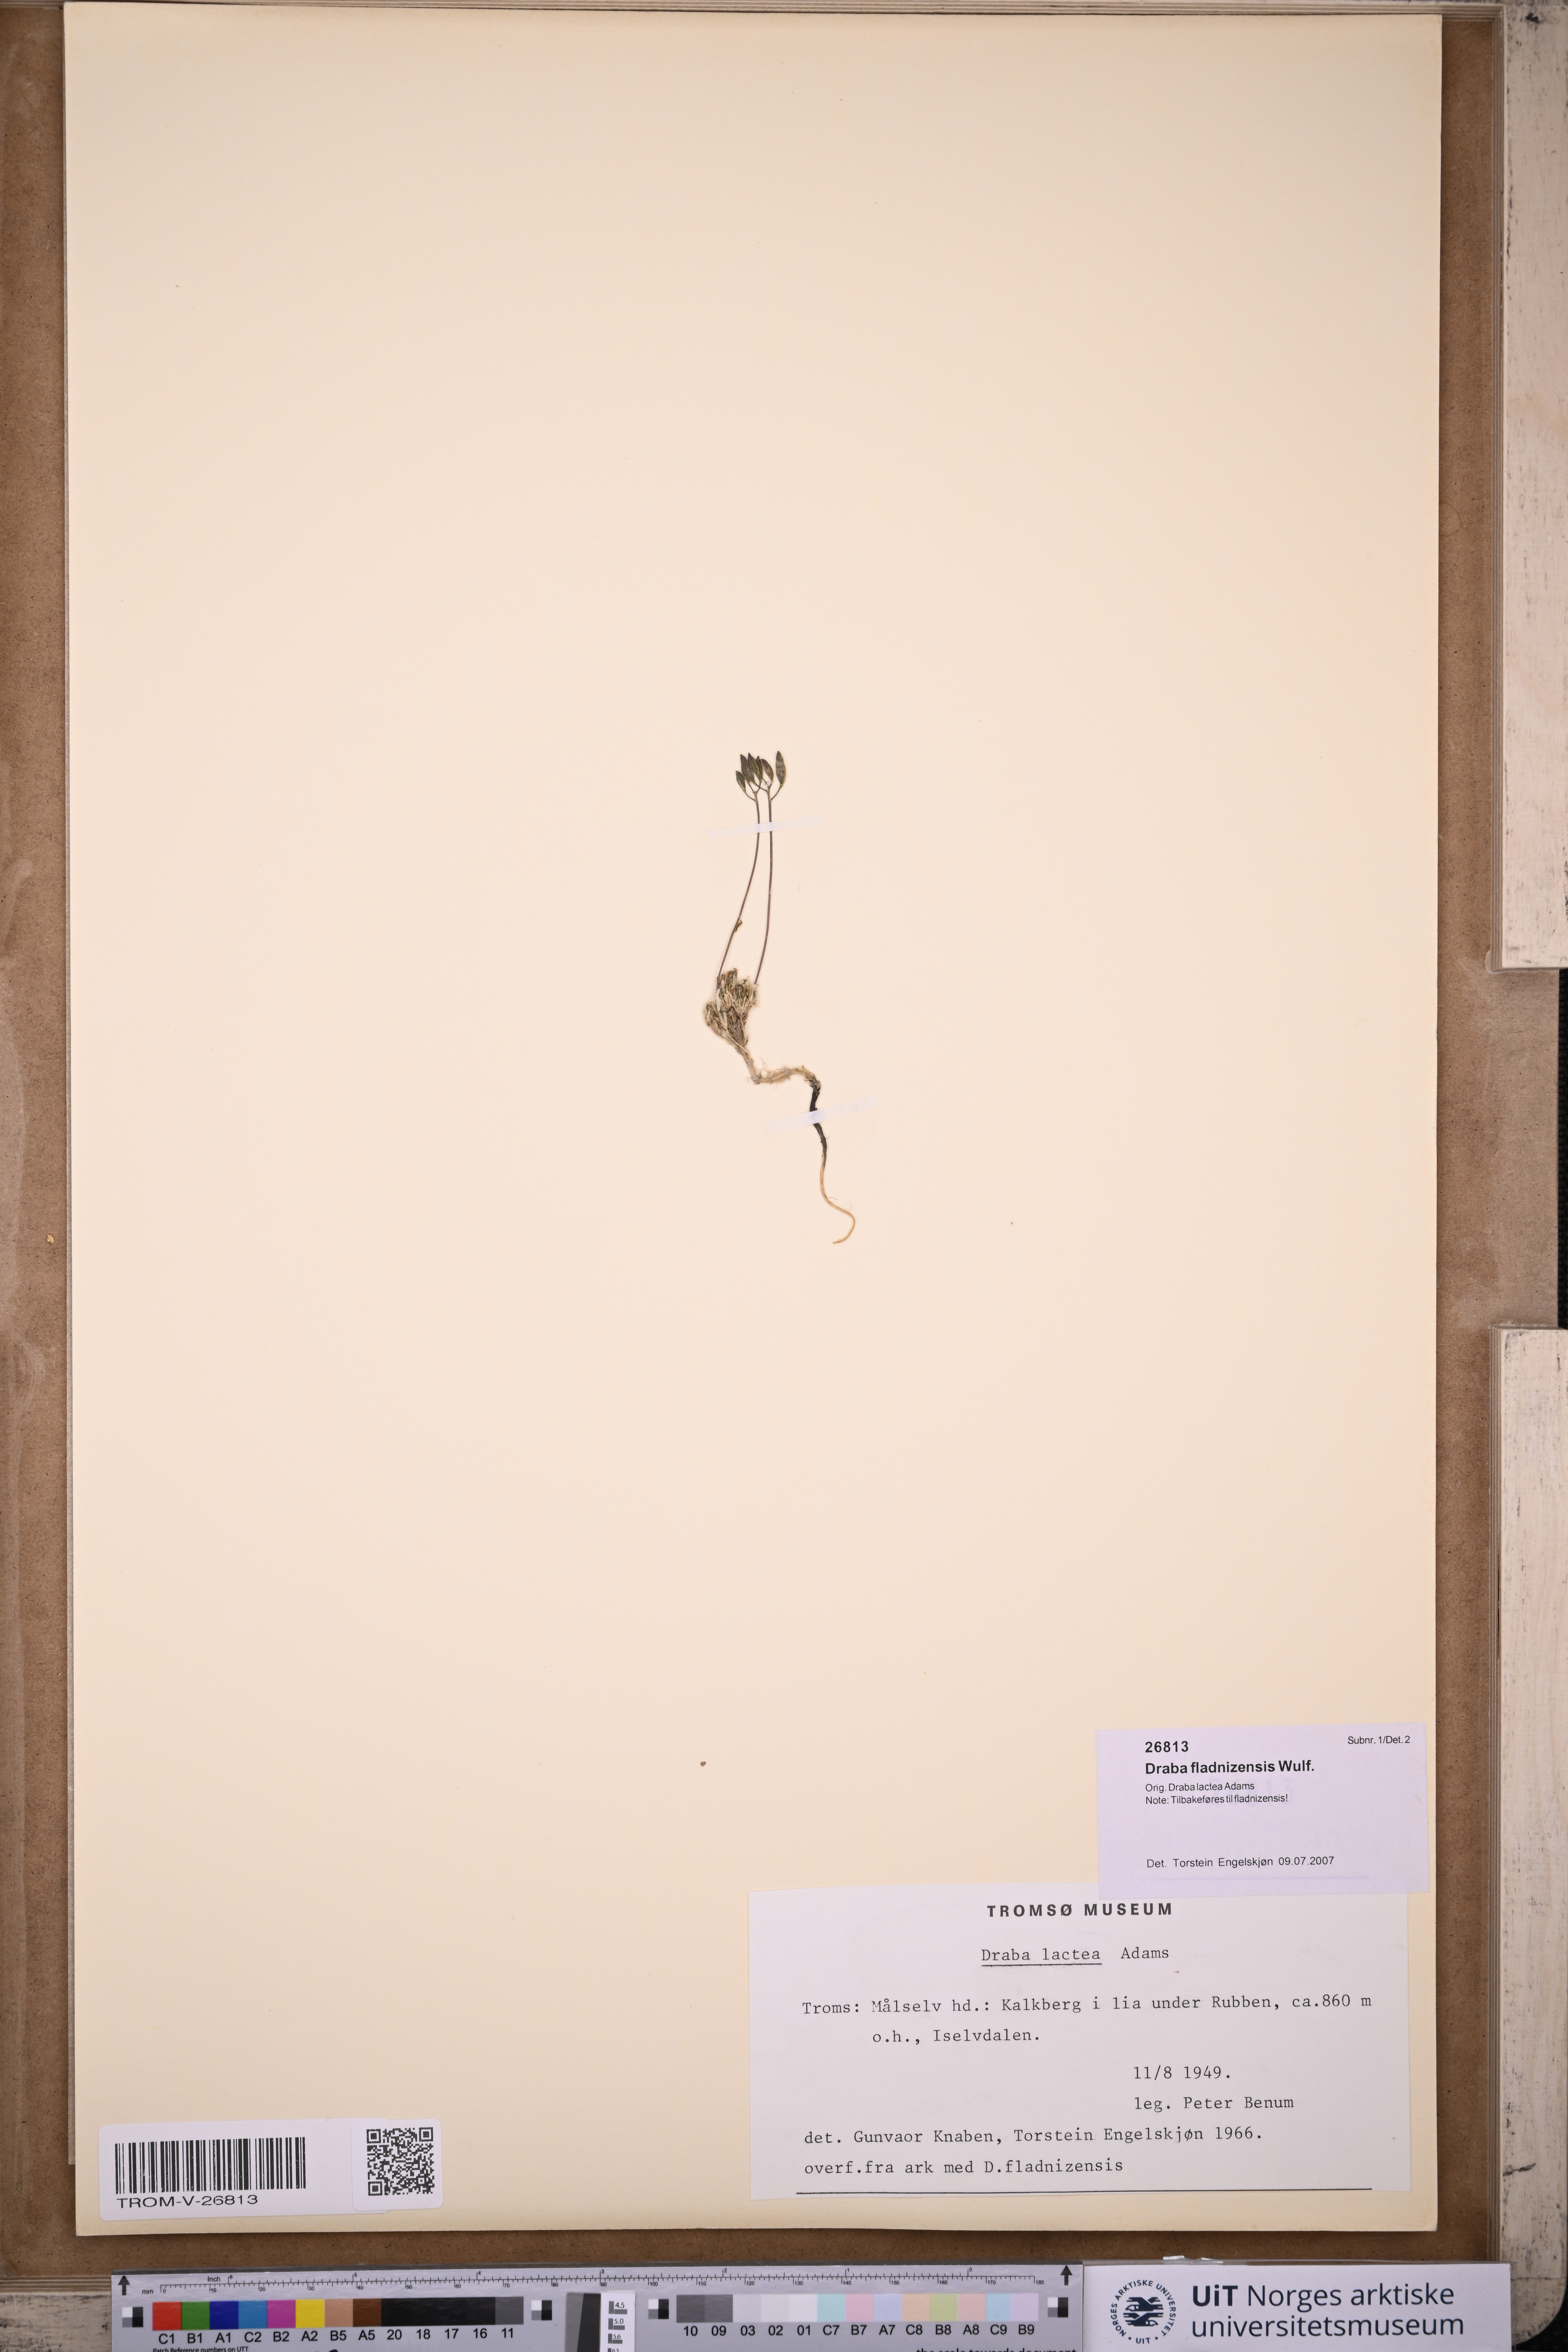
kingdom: Plantae
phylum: Tracheophyta
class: Magnoliopsida
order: Brassicales
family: Brassicaceae
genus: Draba
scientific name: Draba fladnizensis
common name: Austrian draba
